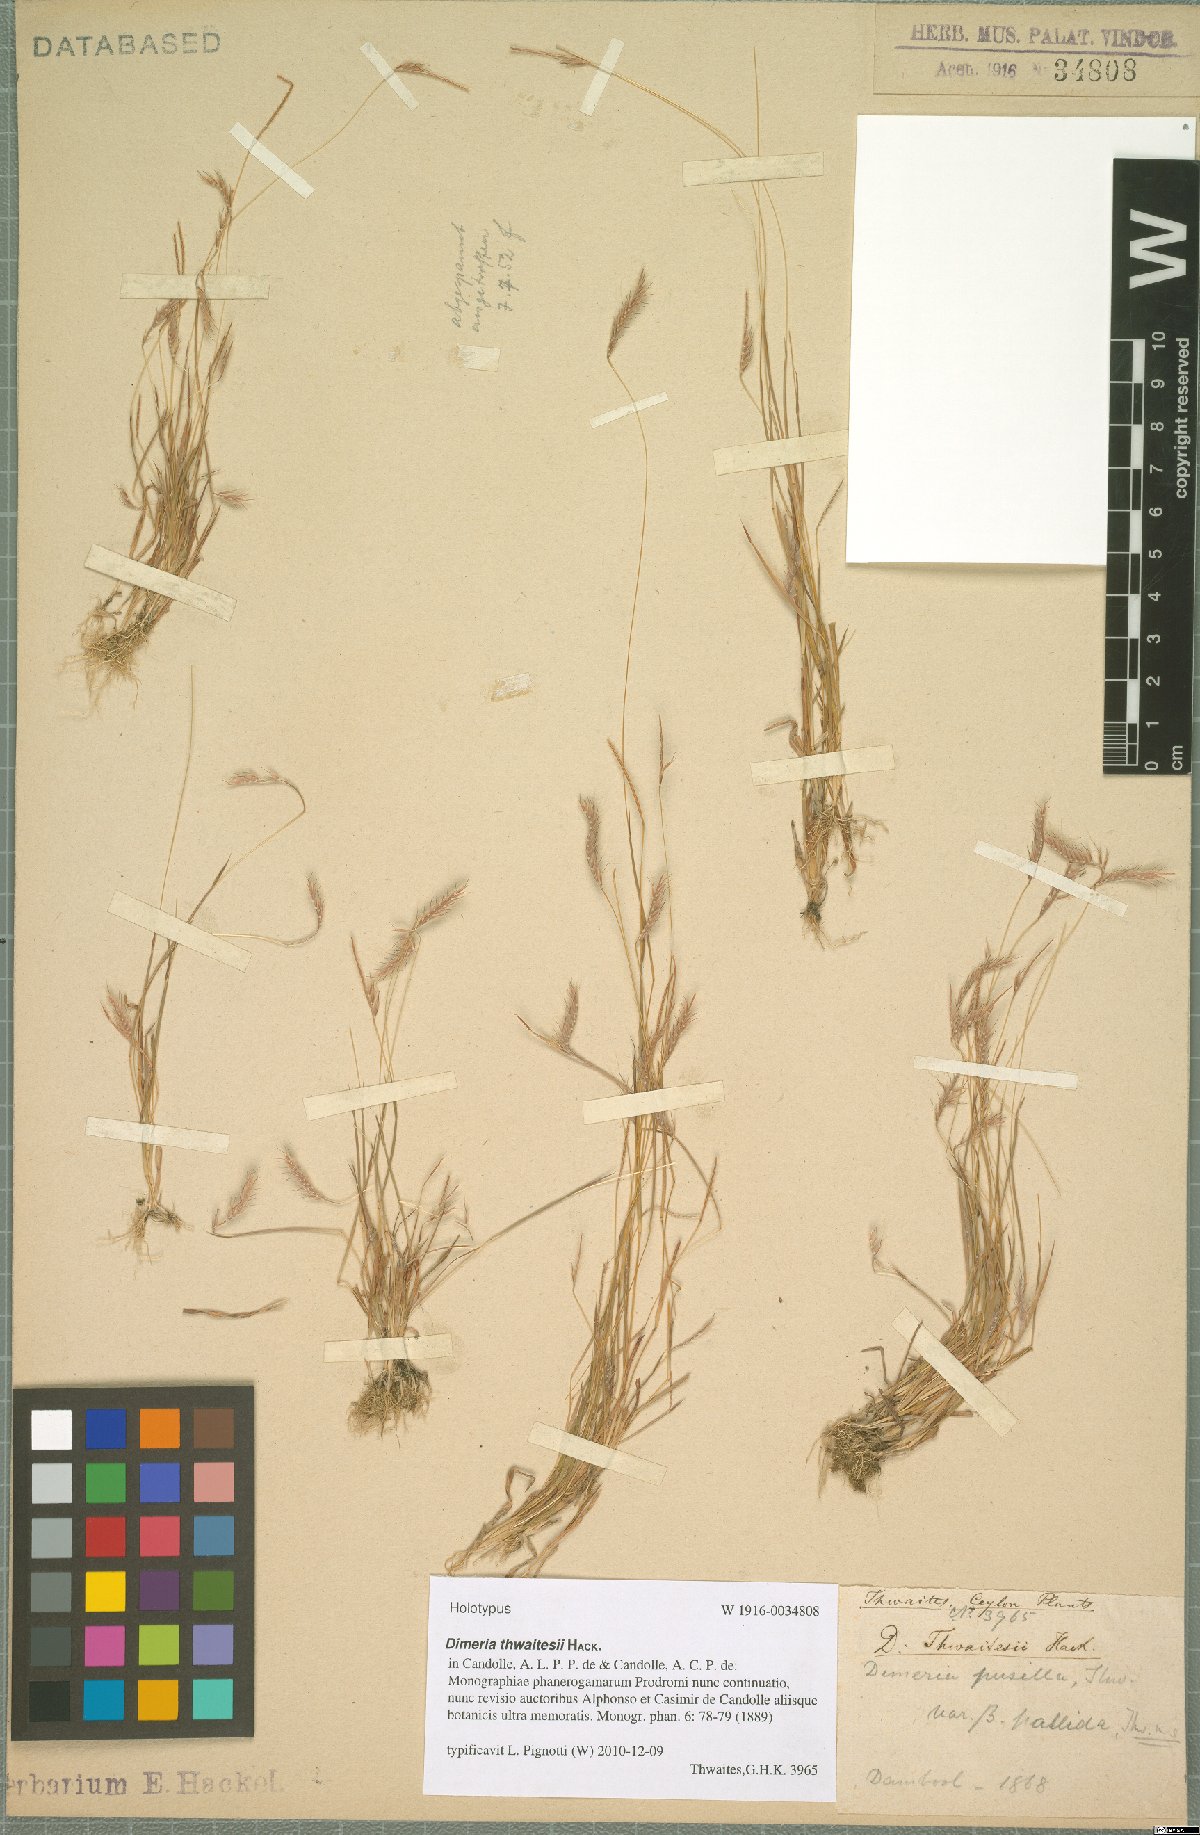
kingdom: Plantae
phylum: Tracheophyta
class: Liliopsida
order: Poales
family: Poaceae
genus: Dimeria
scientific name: Dimeria thwaitesii
